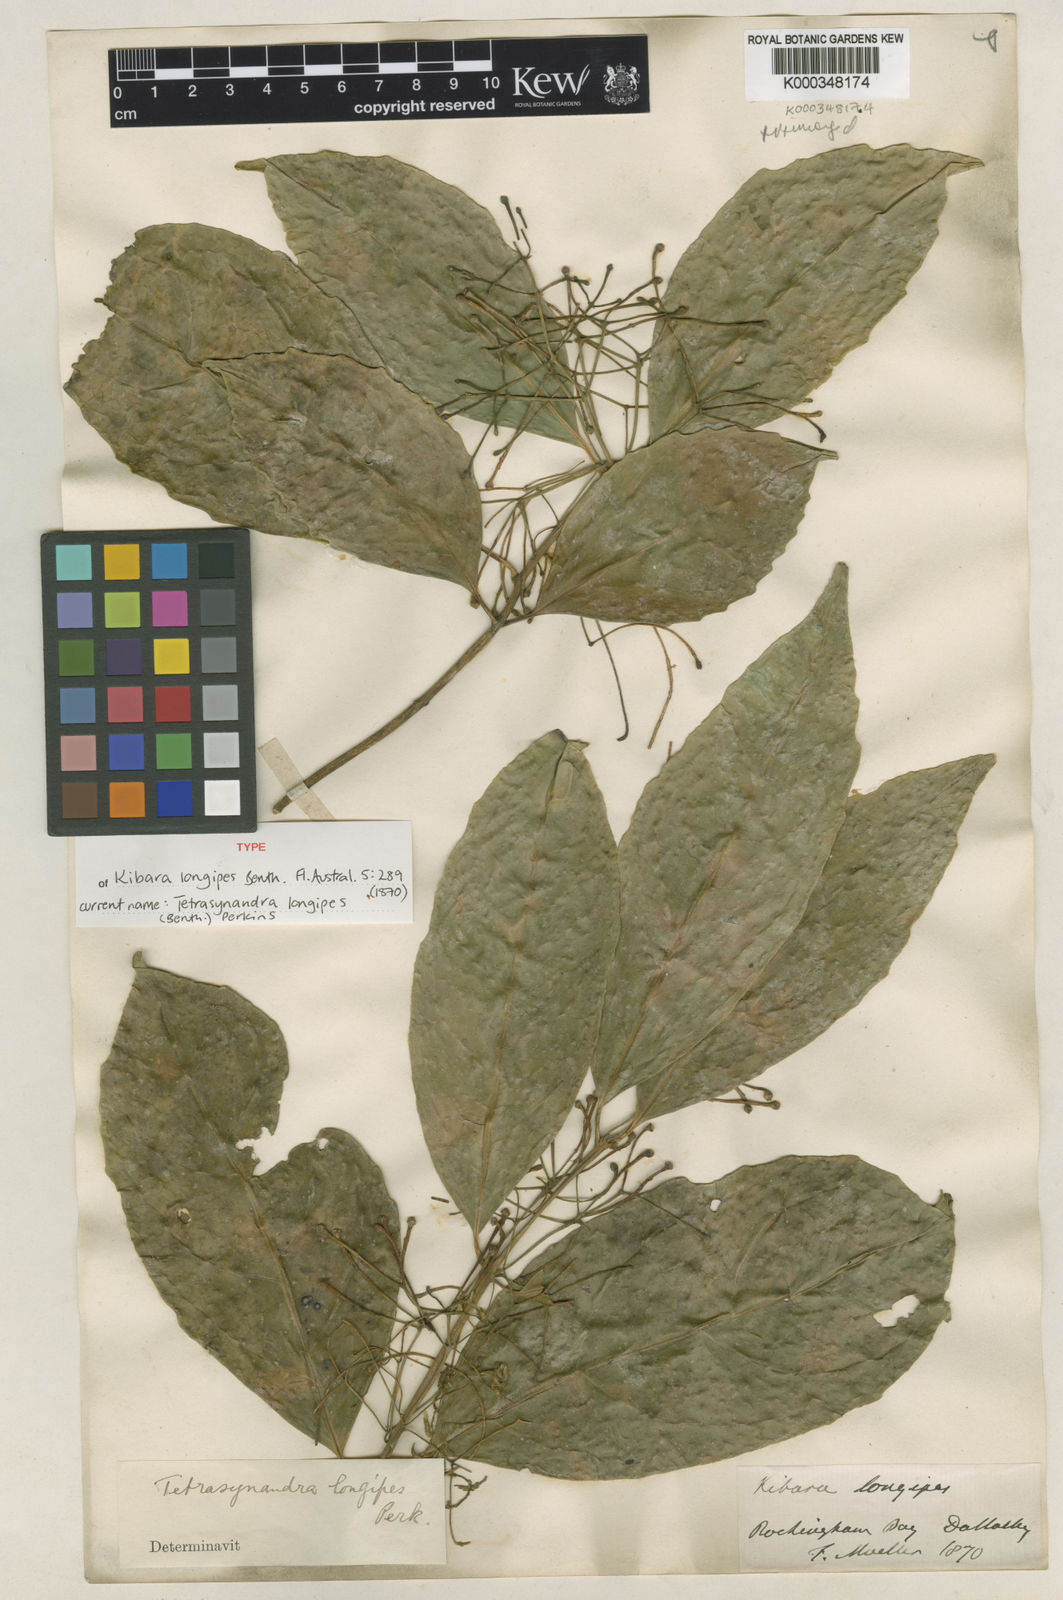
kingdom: Plantae
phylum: Tracheophyta
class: Magnoliopsida
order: Laurales
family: Monimiaceae
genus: Wilkiea
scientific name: Wilkiea longipes
